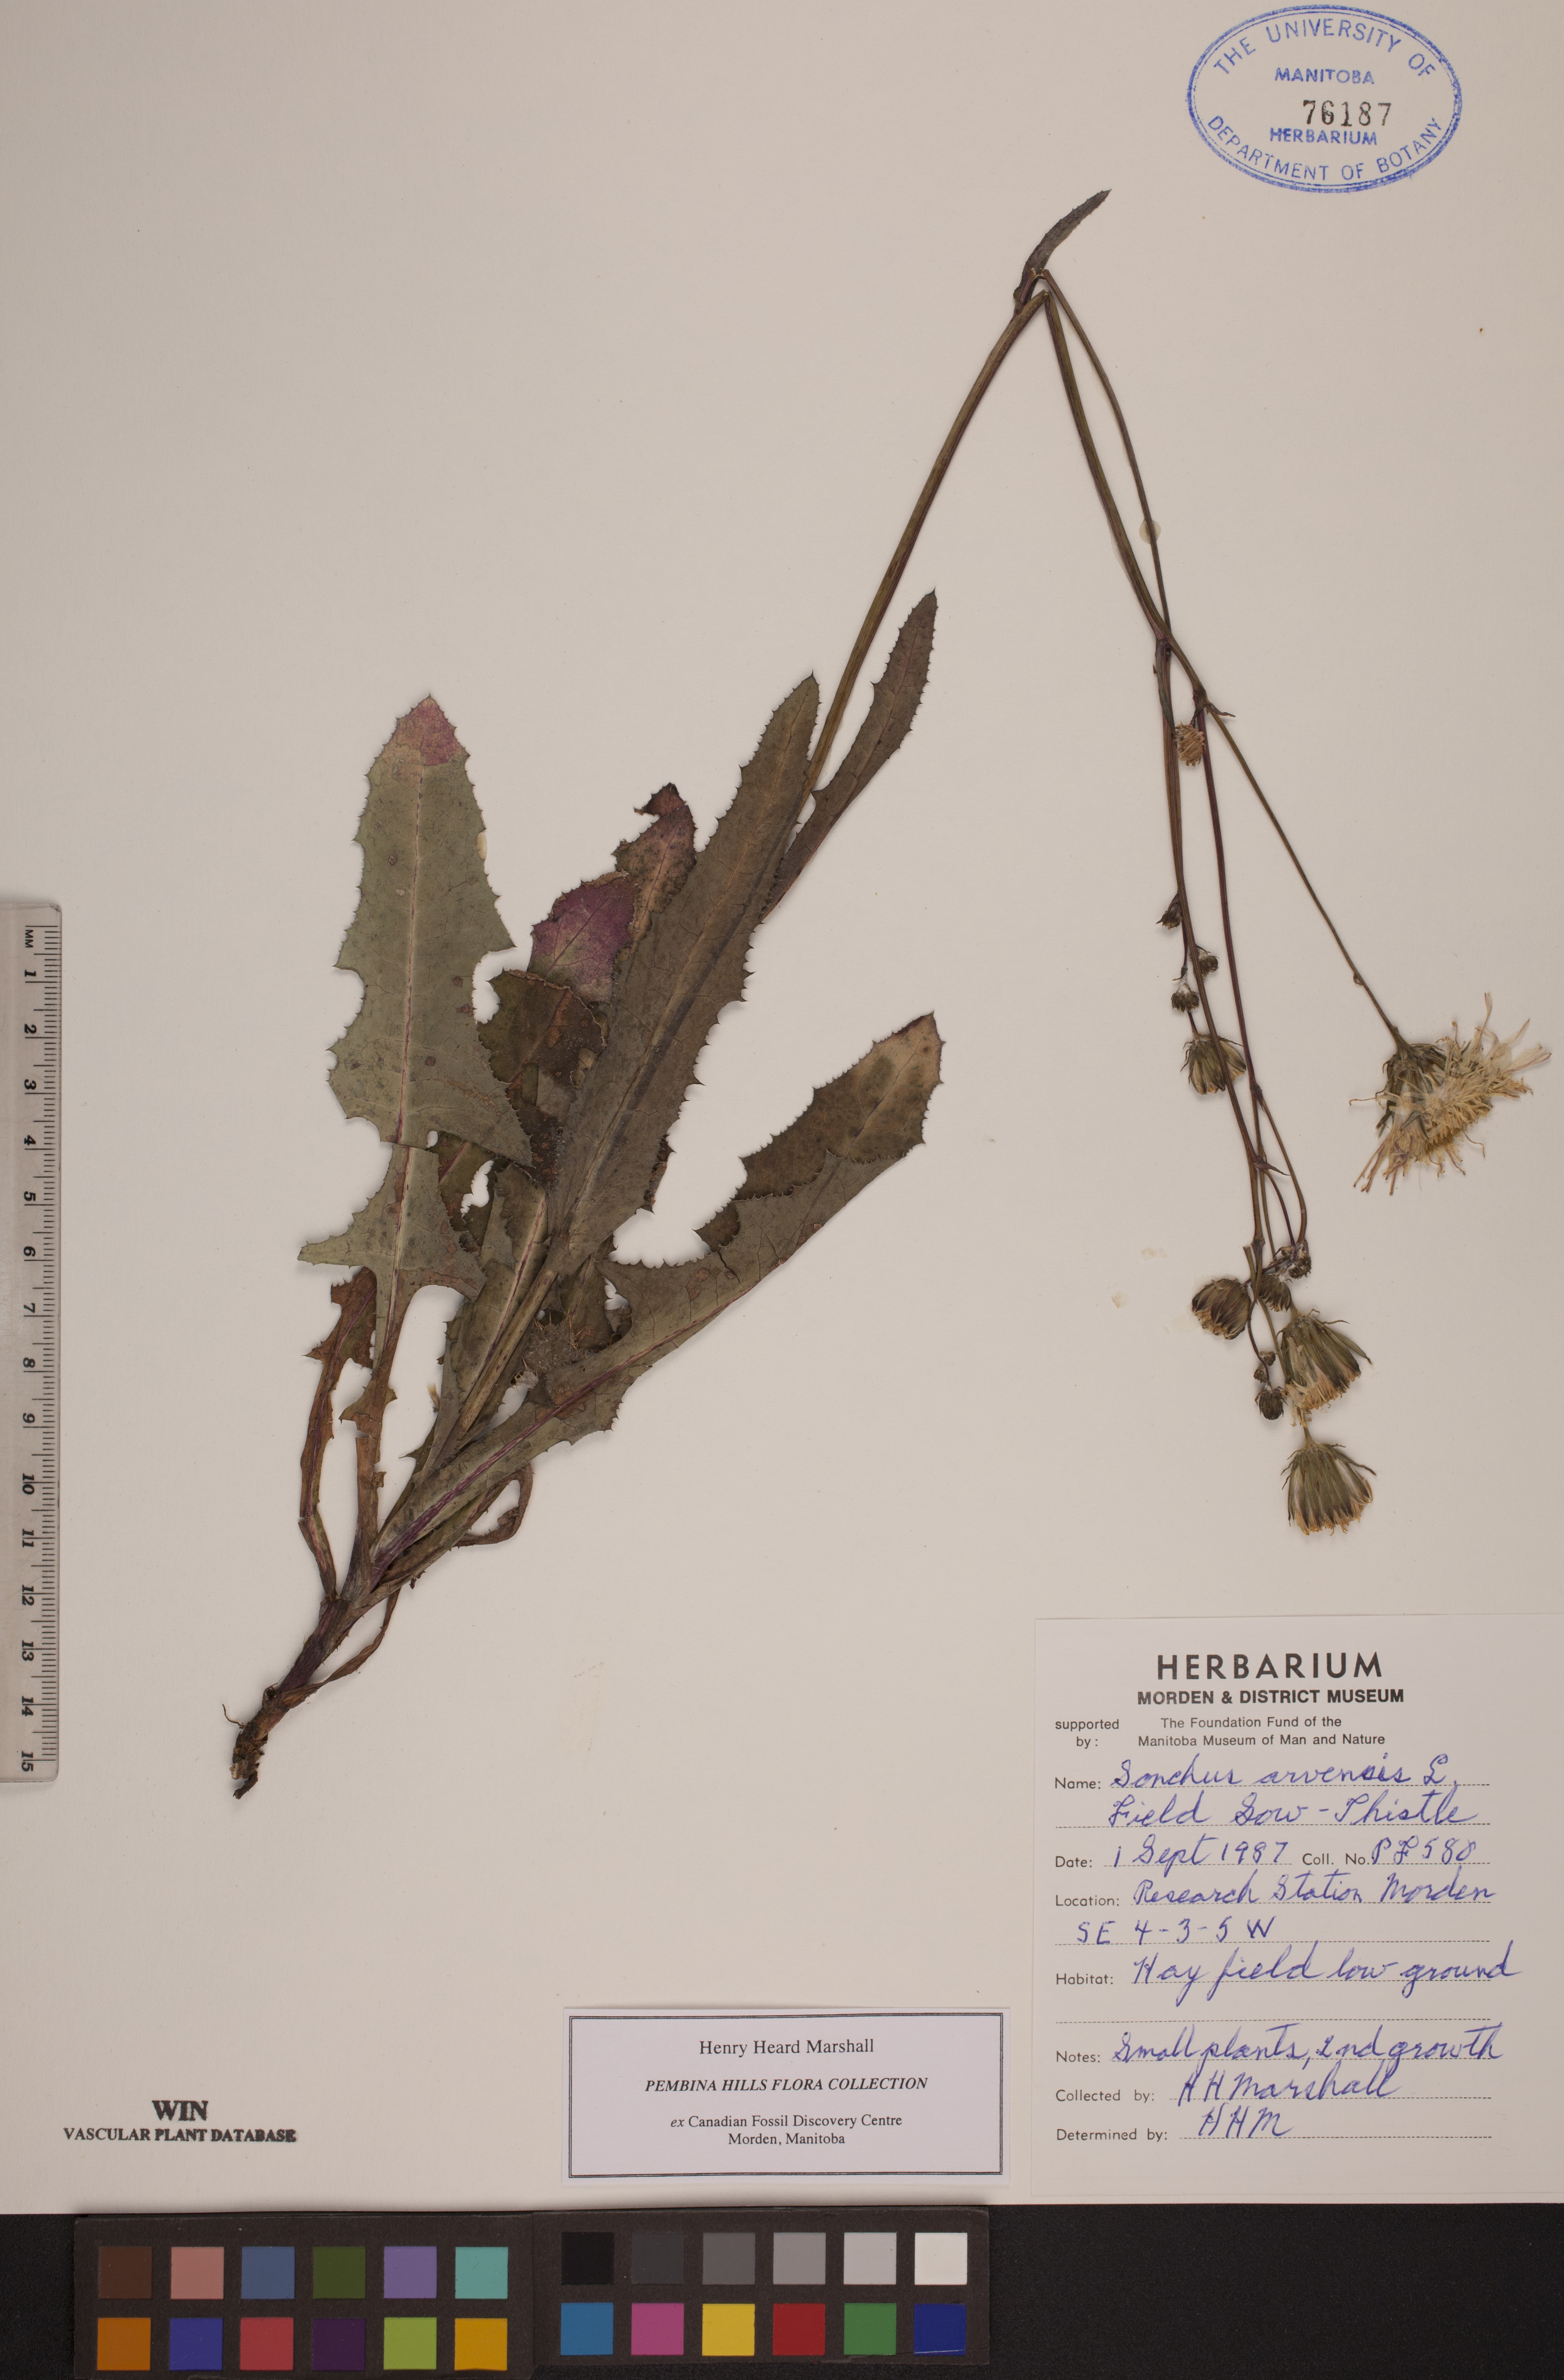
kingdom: Plantae
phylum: Tracheophyta
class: Magnoliopsida
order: Asterales
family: Asteraceae
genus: Sonchus
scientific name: Sonchus arvensis
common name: Perennial sow-thistle
